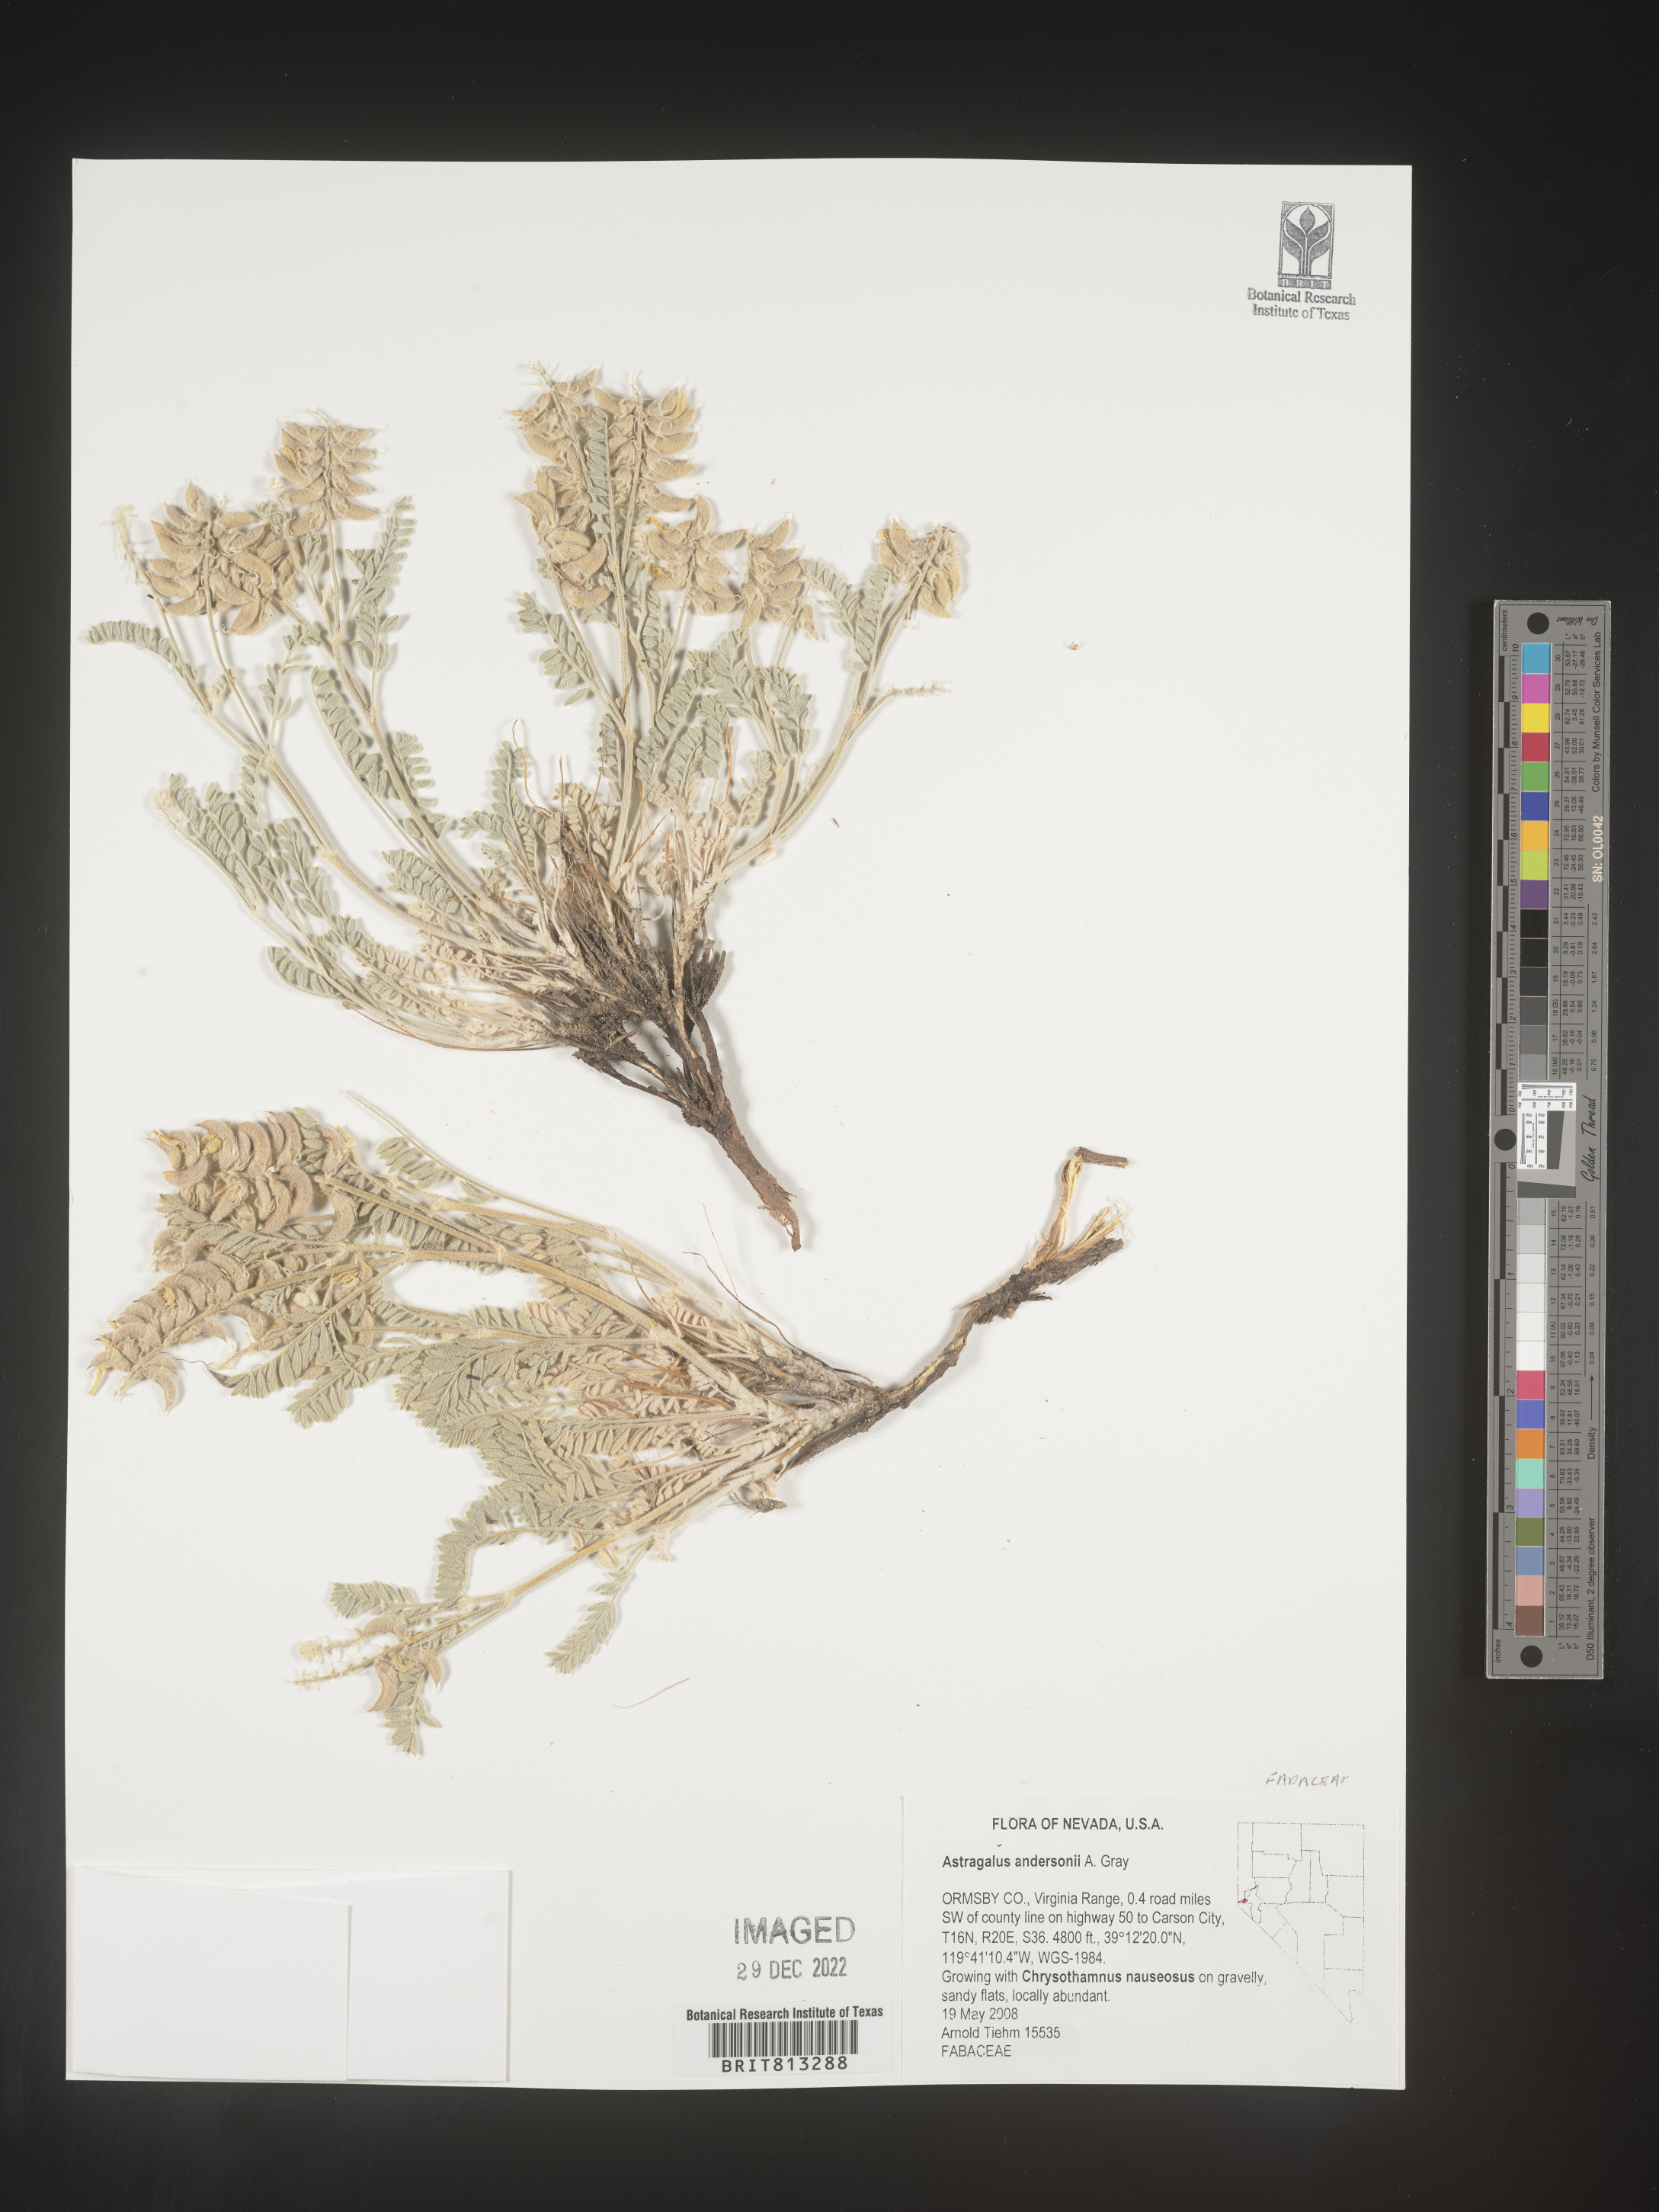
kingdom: Plantae
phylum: Tracheophyta
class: Magnoliopsida
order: Fabales
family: Fabaceae
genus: Astragalus
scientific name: Astragalus
